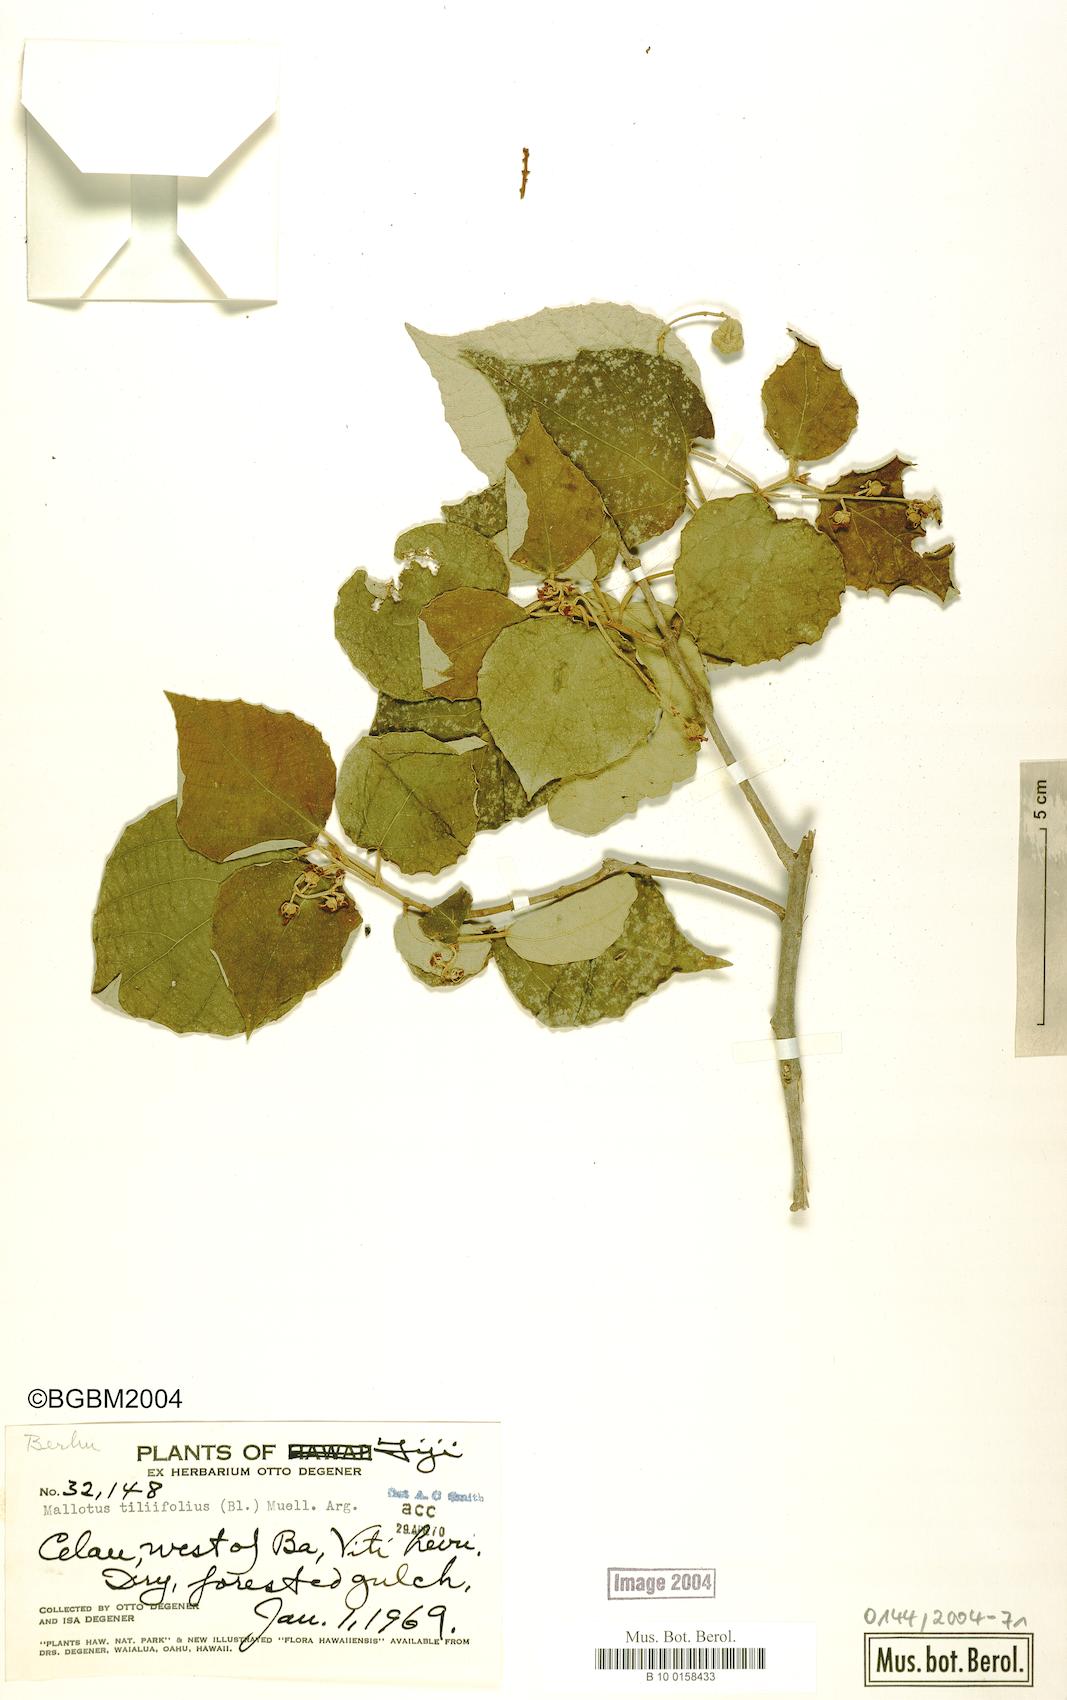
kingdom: Plantae
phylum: Tracheophyta
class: Magnoliopsida
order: Malpighiales
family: Euphorbiaceae
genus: Mallotus
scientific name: Mallotus tiliifolius
